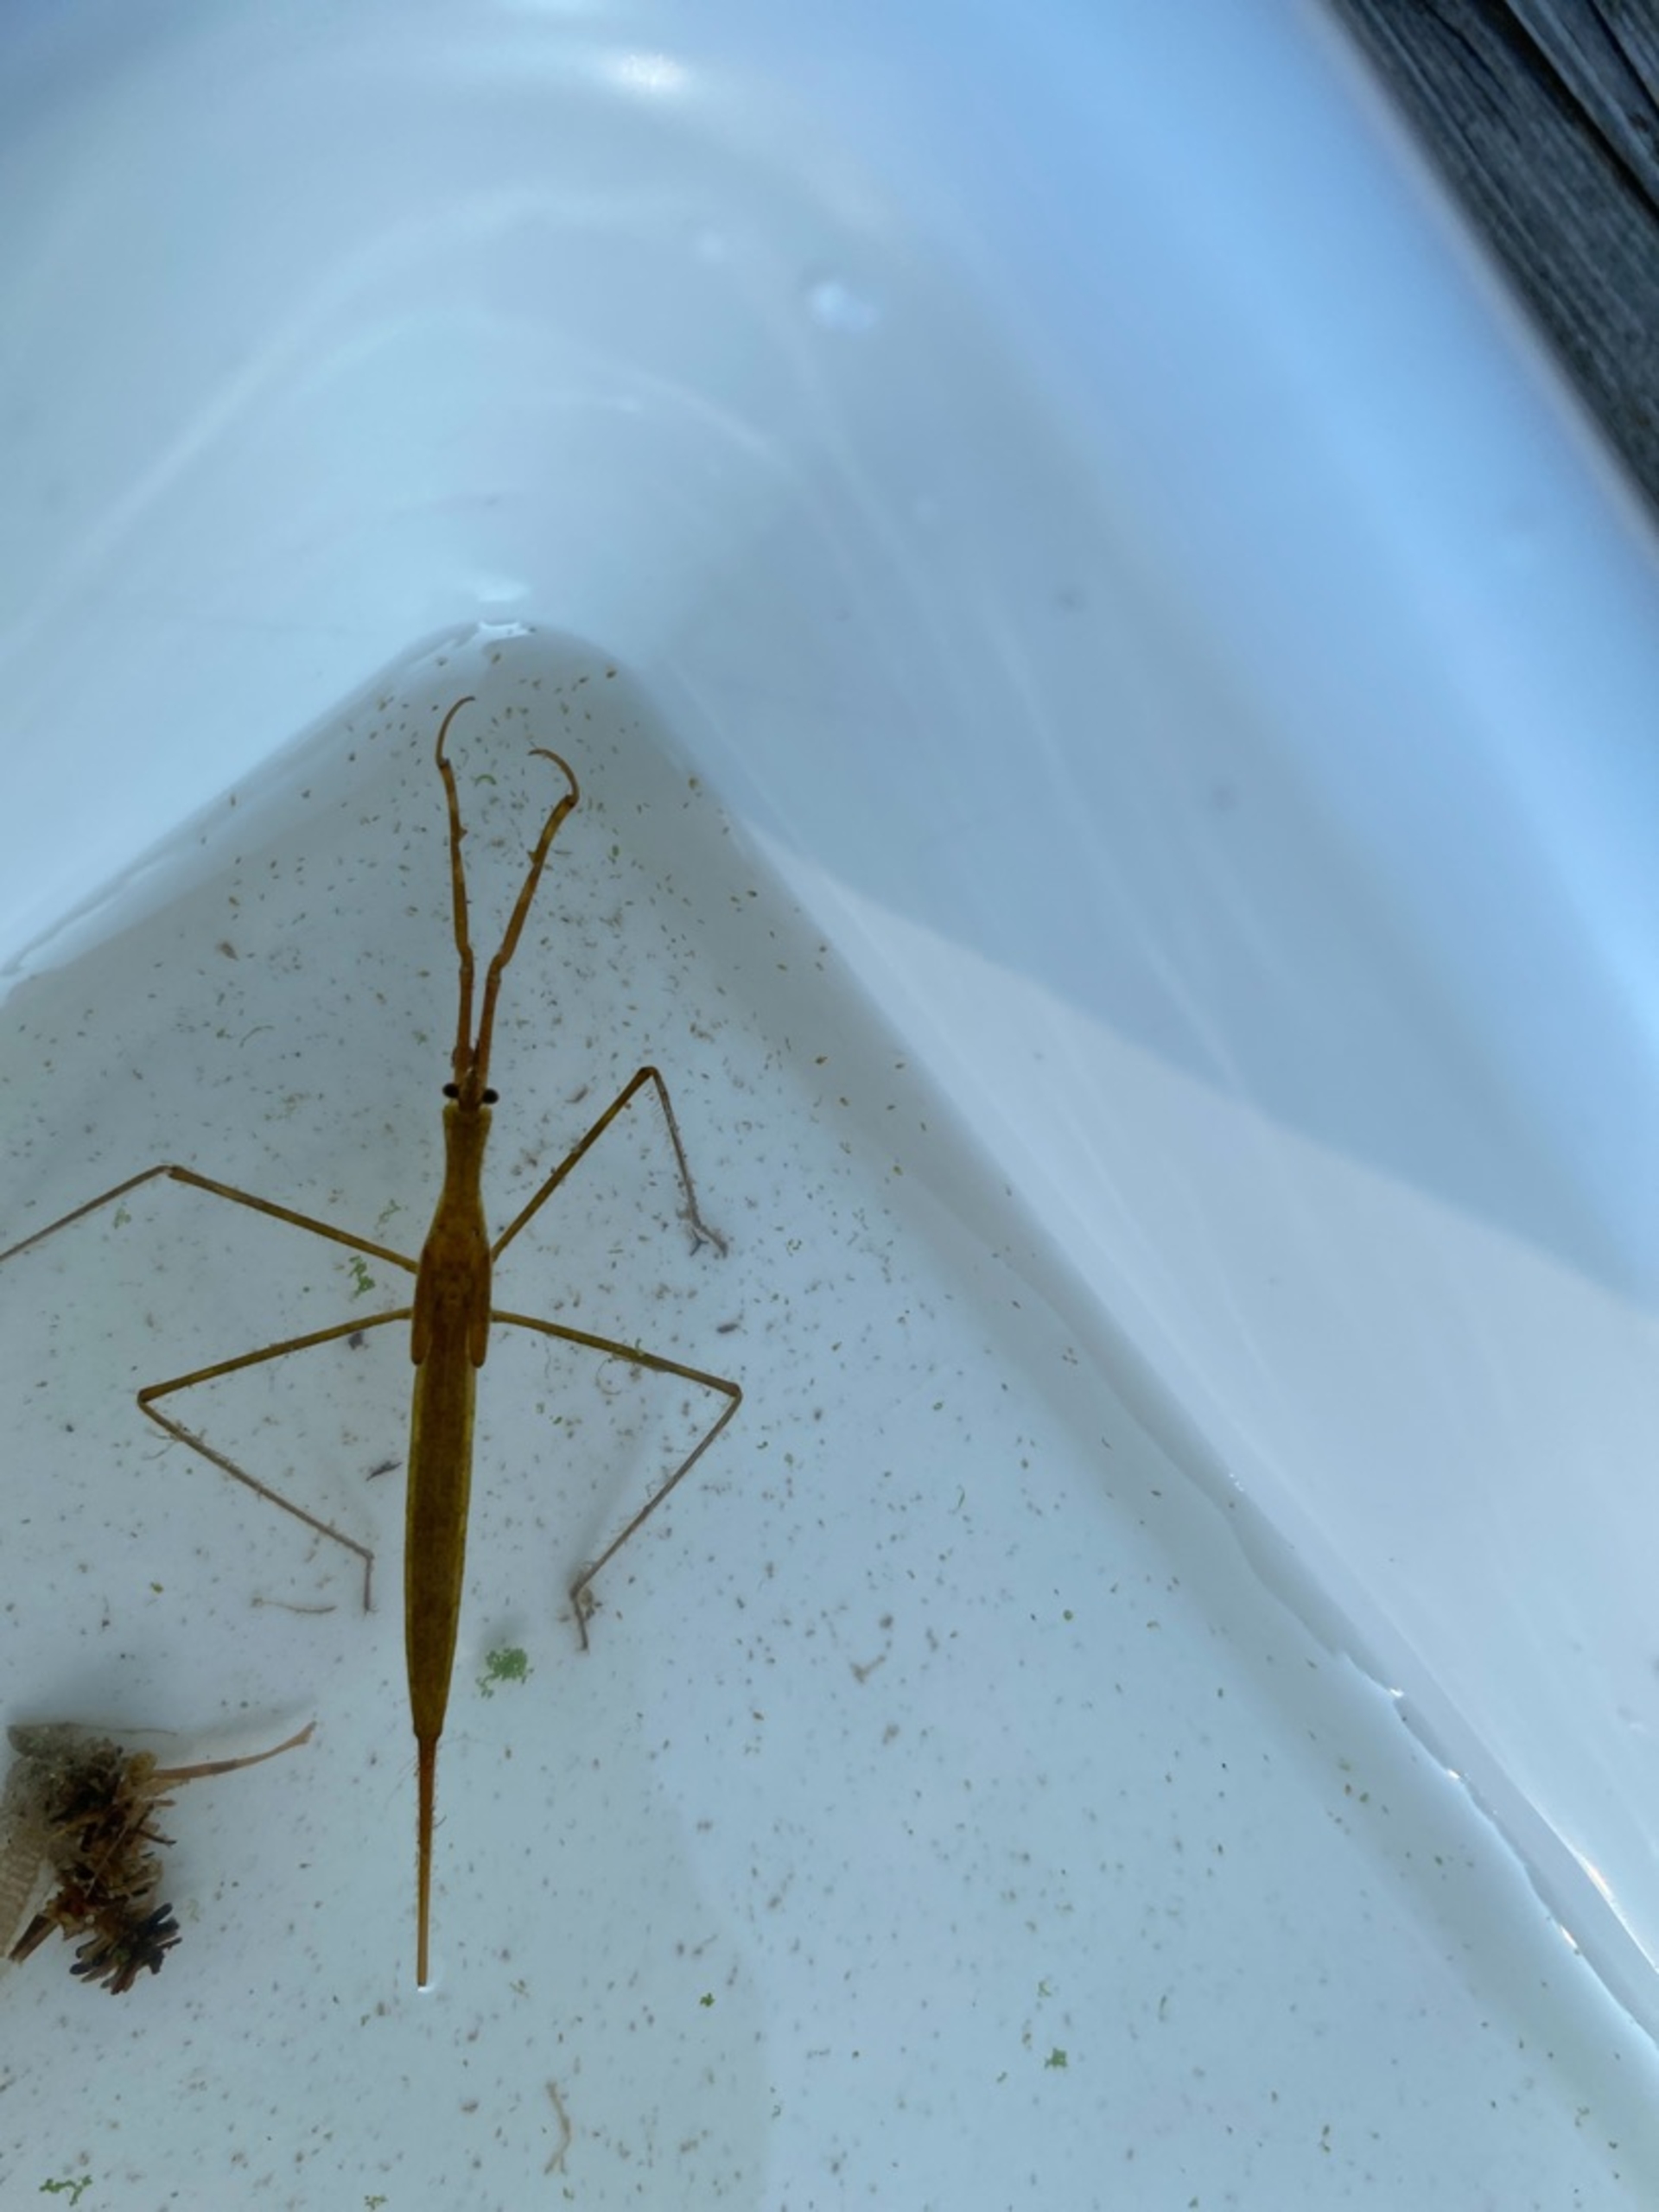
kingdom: Animalia
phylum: Arthropoda
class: Insecta
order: Hemiptera
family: Nepidae
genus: Ranatra
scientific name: Ranatra linearis
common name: Stavtæge
